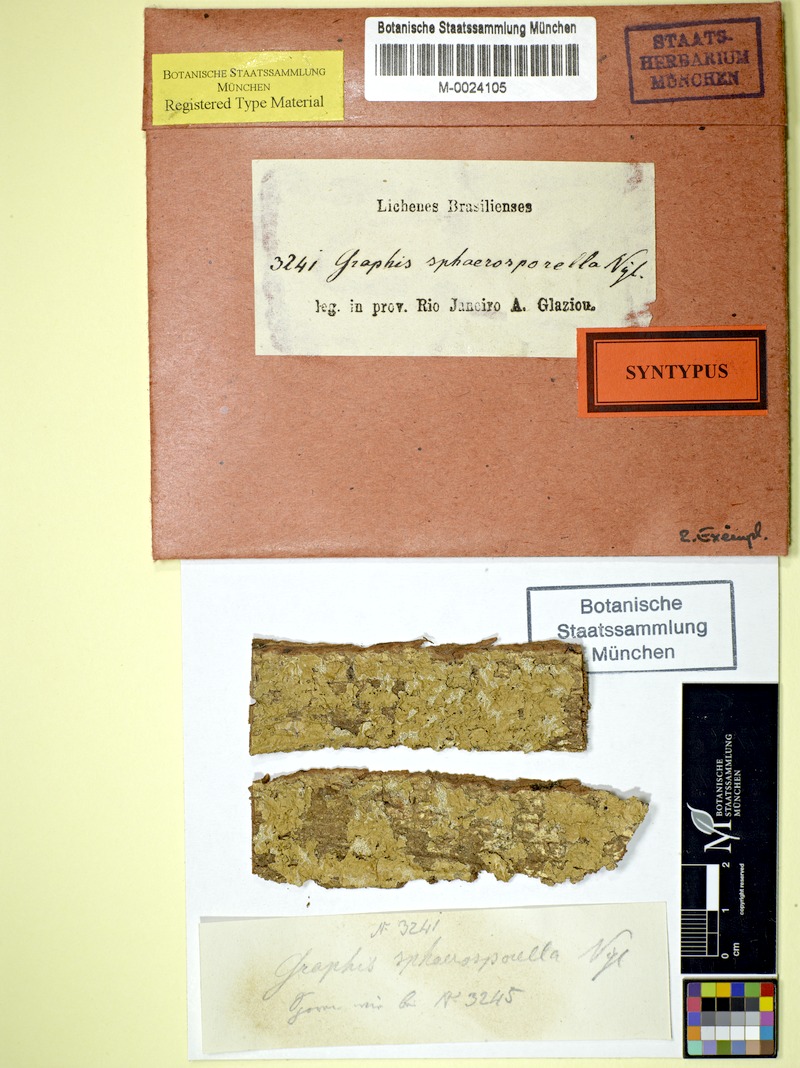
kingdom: Fungi
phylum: Ascomycota
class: Lecanoromycetes
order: Ostropales
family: Graphidaceae
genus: Platythecium
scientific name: Platythecium sphaerosporellum
